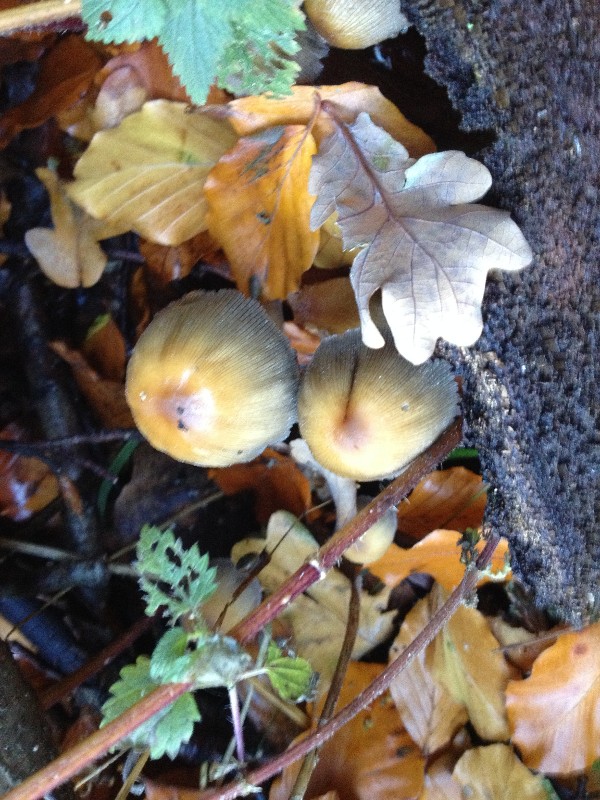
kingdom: Fungi
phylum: Basidiomycota
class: Agaricomycetes
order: Agaricales
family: Psathyrellaceae
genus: Coprinellus
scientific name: Coprinellus micaceus
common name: glimmer-blækhat
